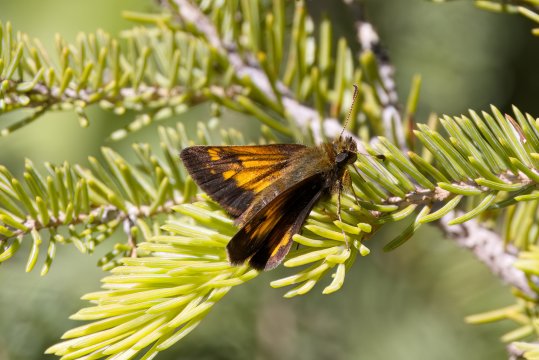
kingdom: Animalia
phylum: Arthropoda
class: Insecta
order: Lepidoptera
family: Hesperiidae
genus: Lon
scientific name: Lon hobomok
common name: Hobomok Skipper
